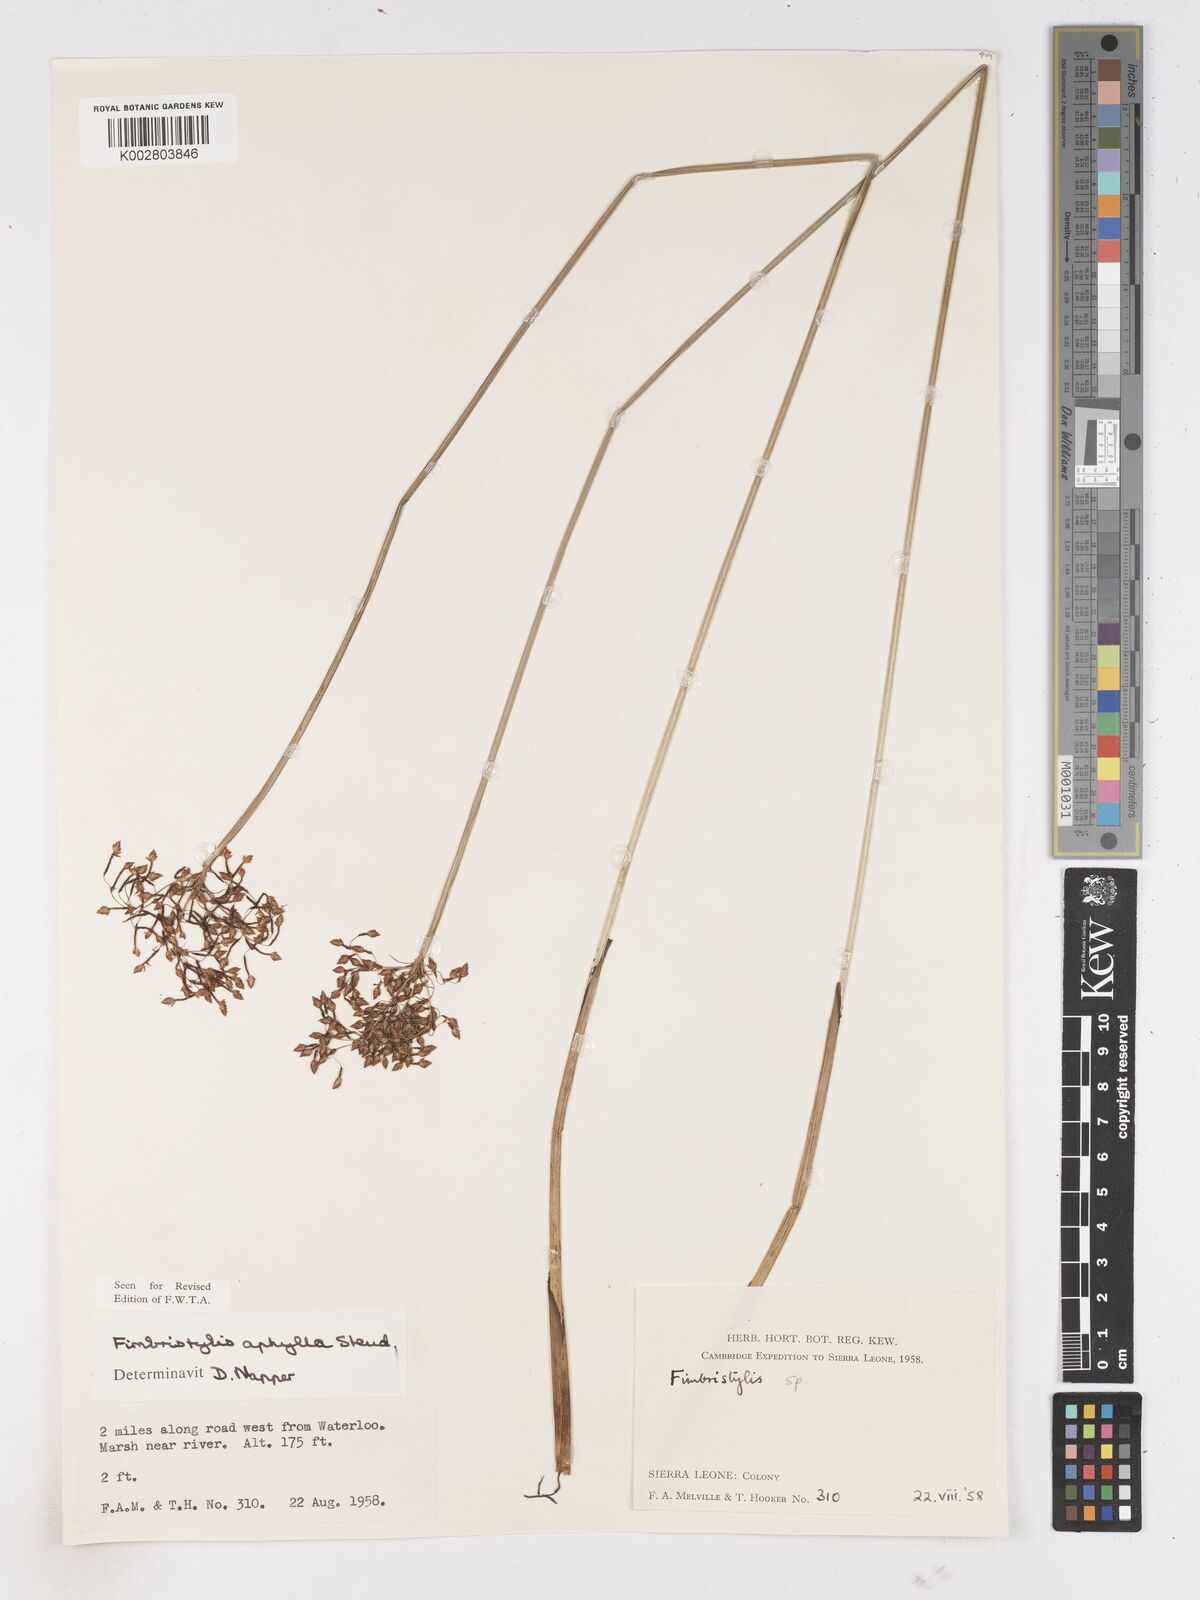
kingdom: Plantae
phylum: Tracheophyta
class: Liliopsida
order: Poales
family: Cyperaceae
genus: Fimbristylis
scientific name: Fimbristylis aphylla
